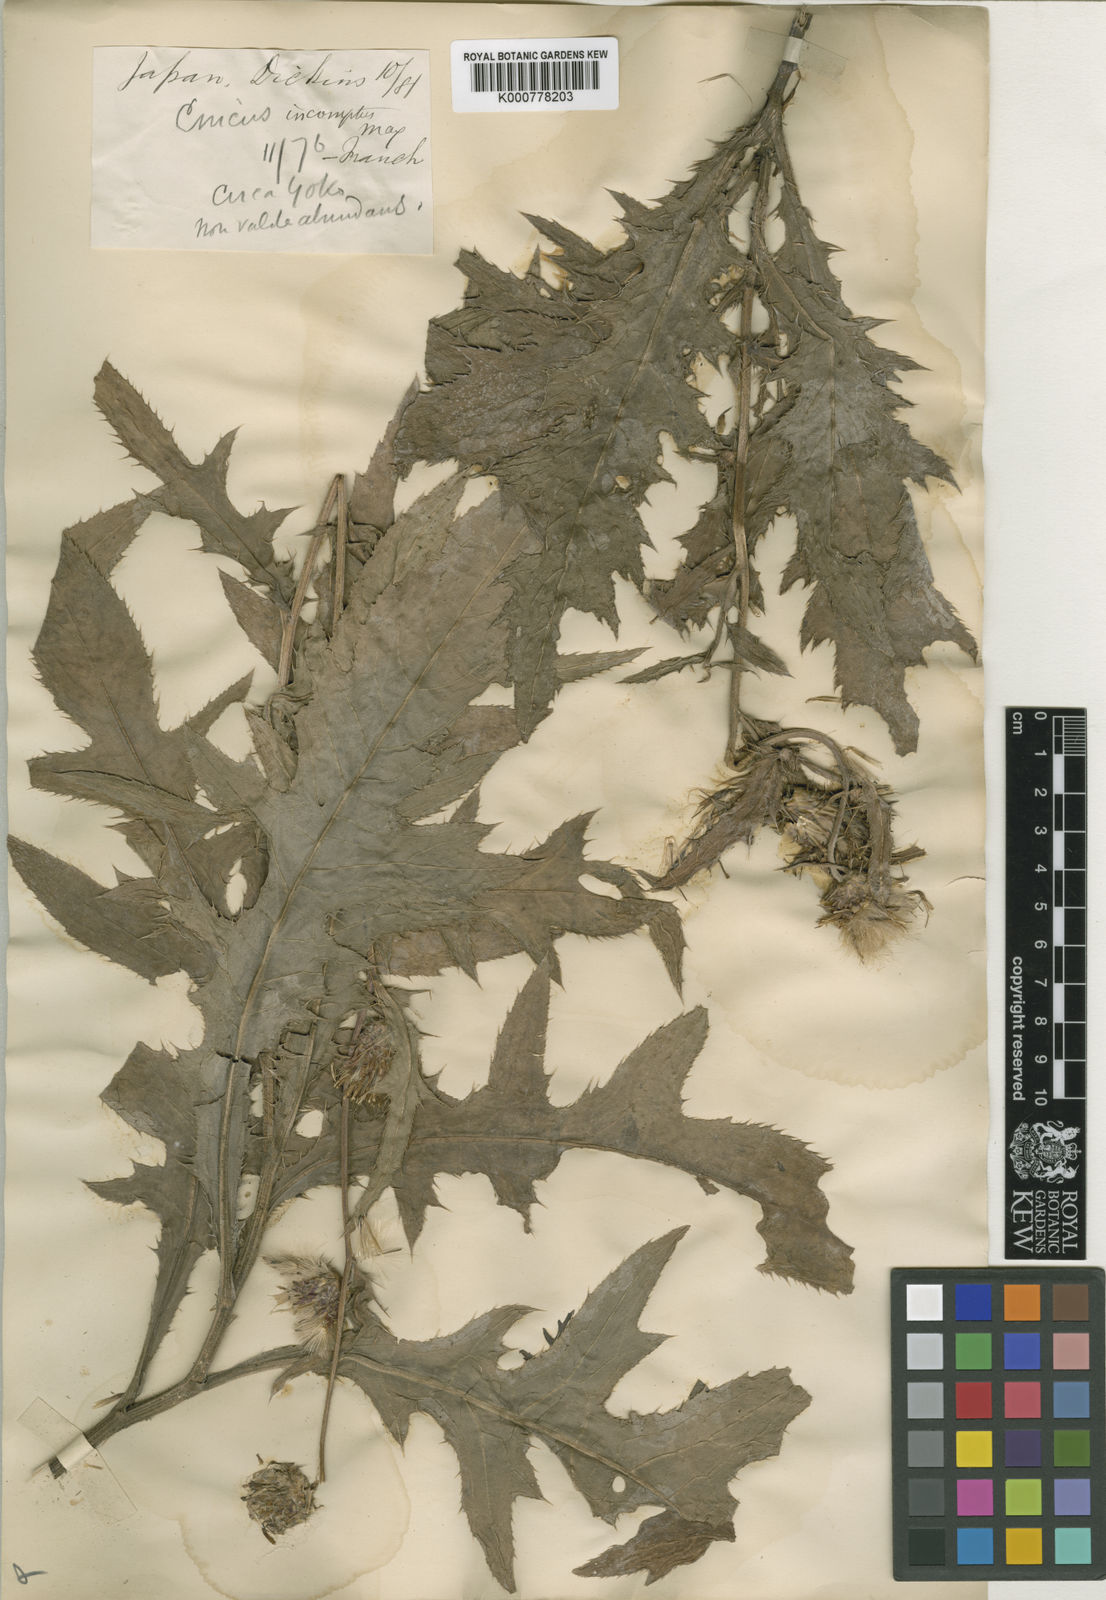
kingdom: Plantae
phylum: Tracheophyta
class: Magnoliopsida
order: Asterales
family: Asteraceae
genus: Cirsium
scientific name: Cirsium nipponicum
